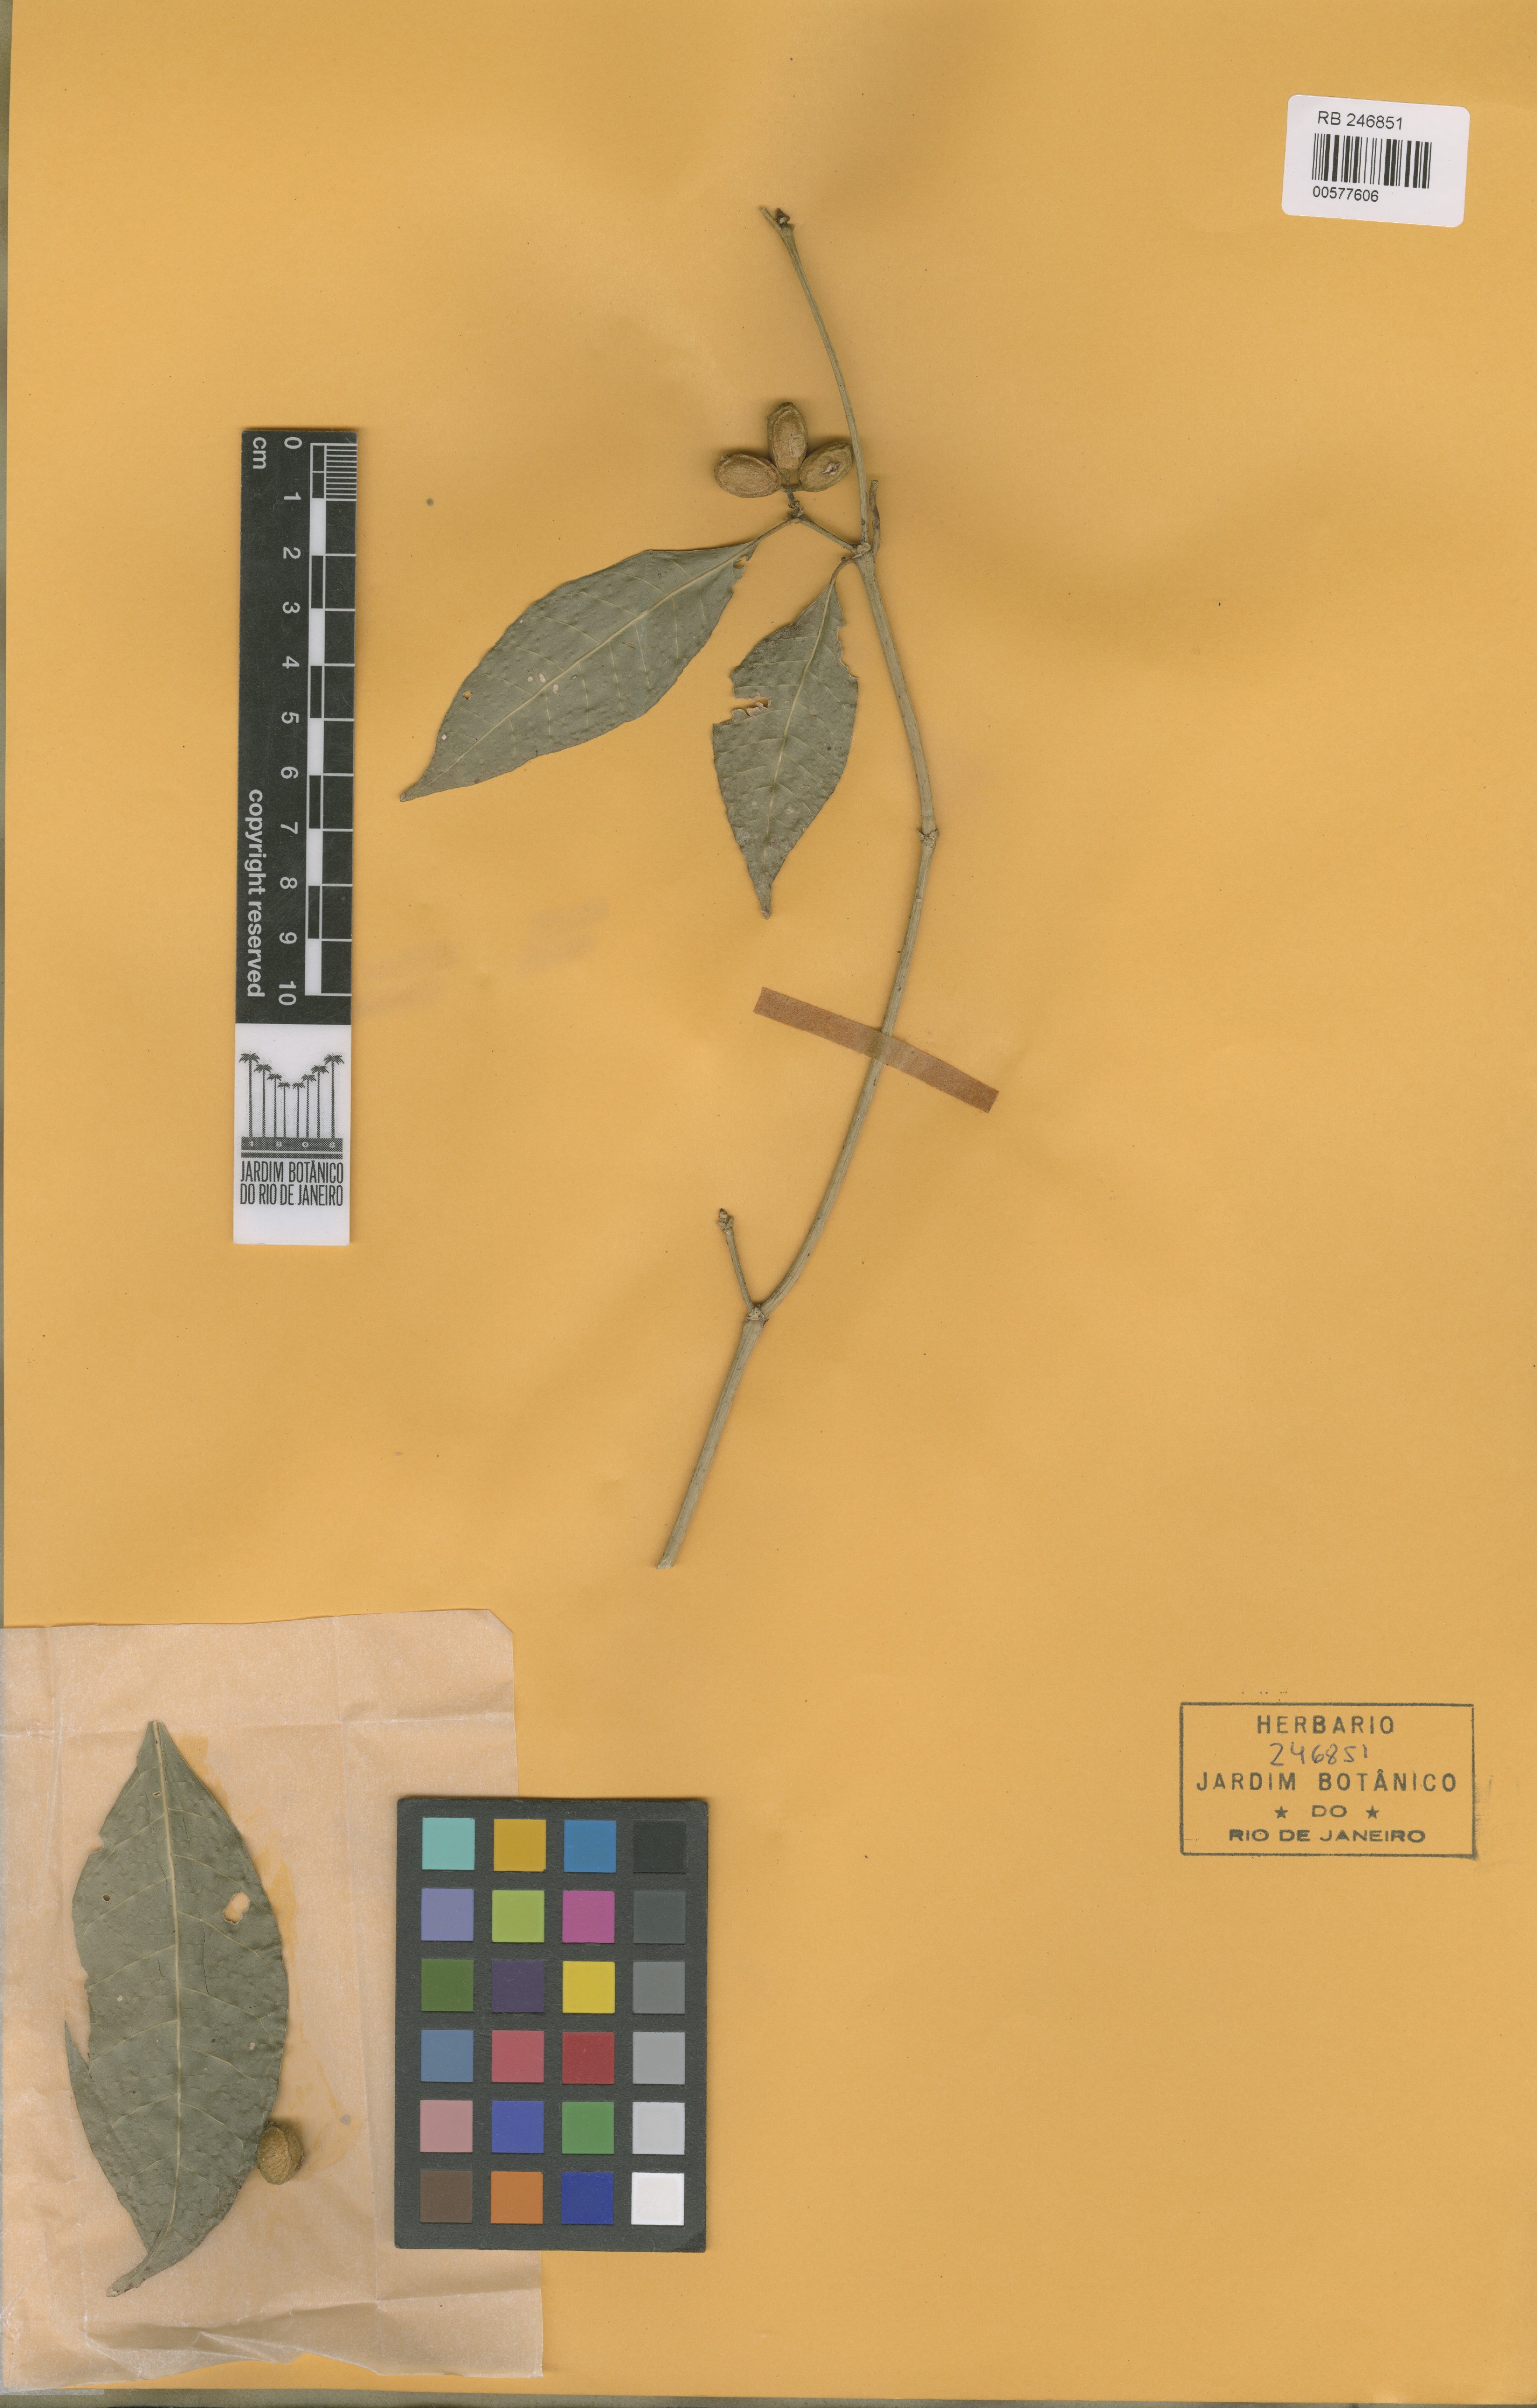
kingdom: Plantae
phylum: Tracheophyta
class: Magnoliopsida
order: Gentianales
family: Rubiaceae
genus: Coussarea
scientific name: Coussarea nodosa
